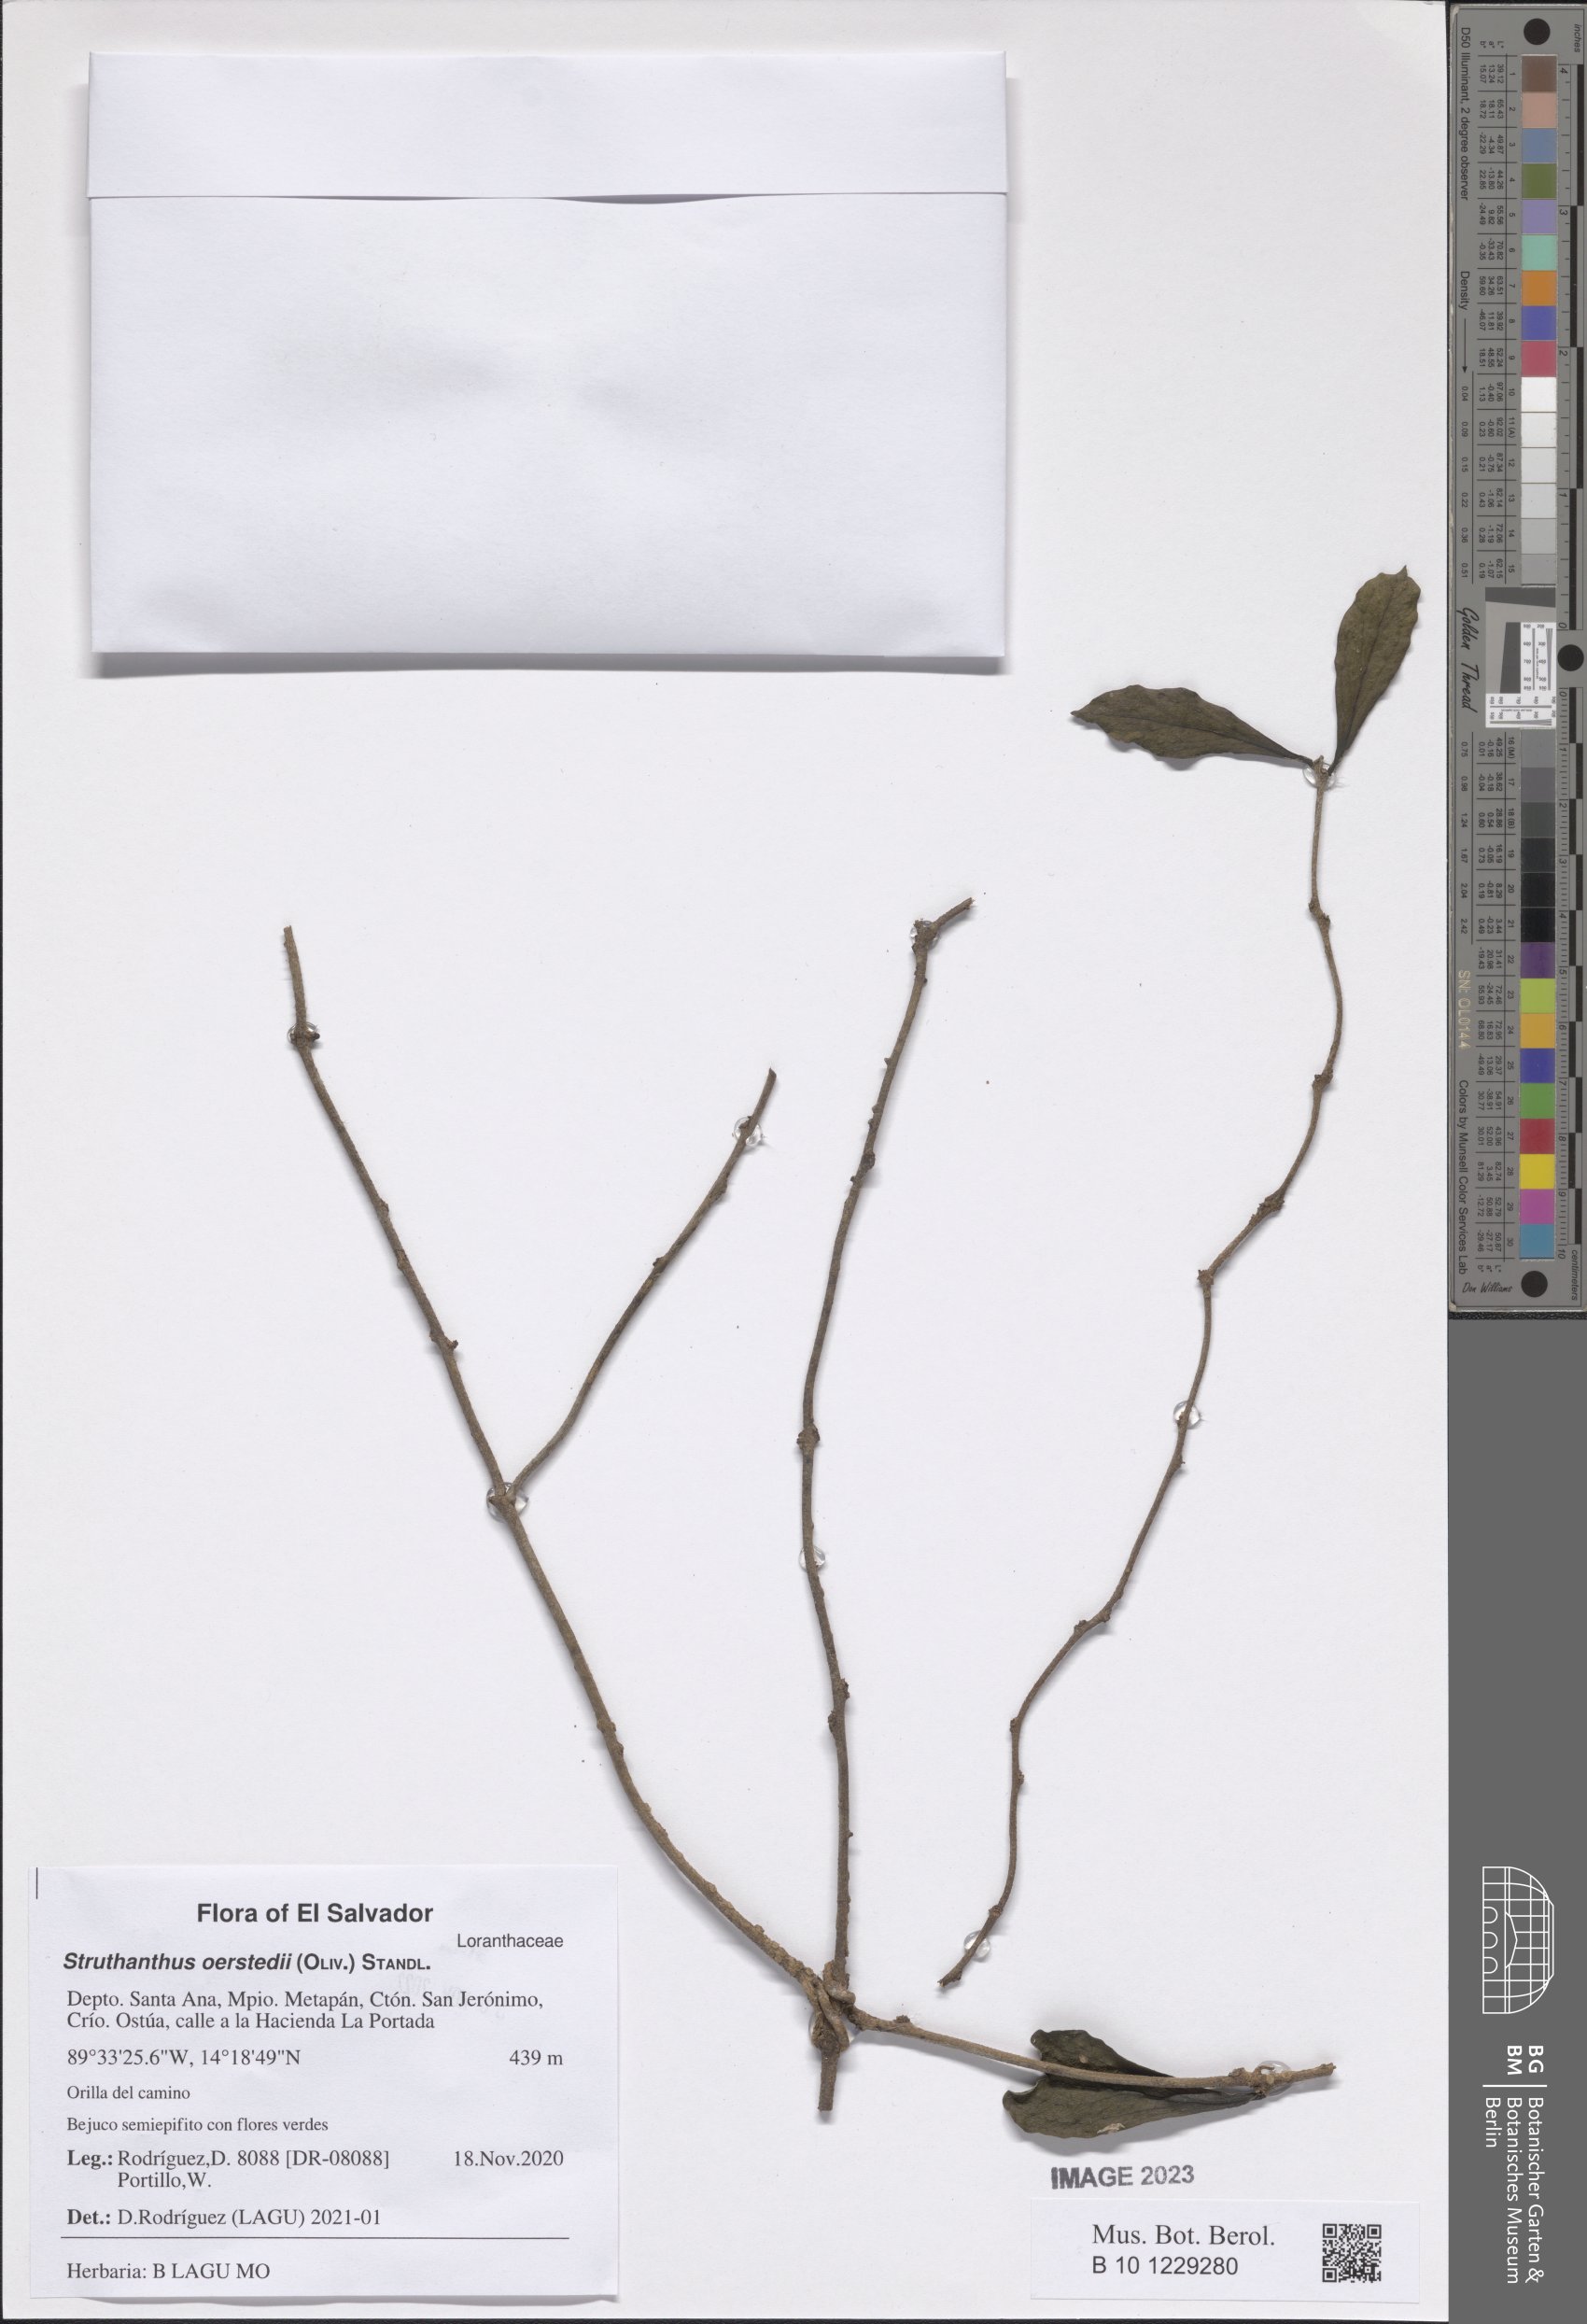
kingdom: Plantae
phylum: Tracheophyta
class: Magnoliopsida
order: Santalales
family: Loranthaceae
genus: Struthanthus
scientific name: Struthanthus oerstedii
